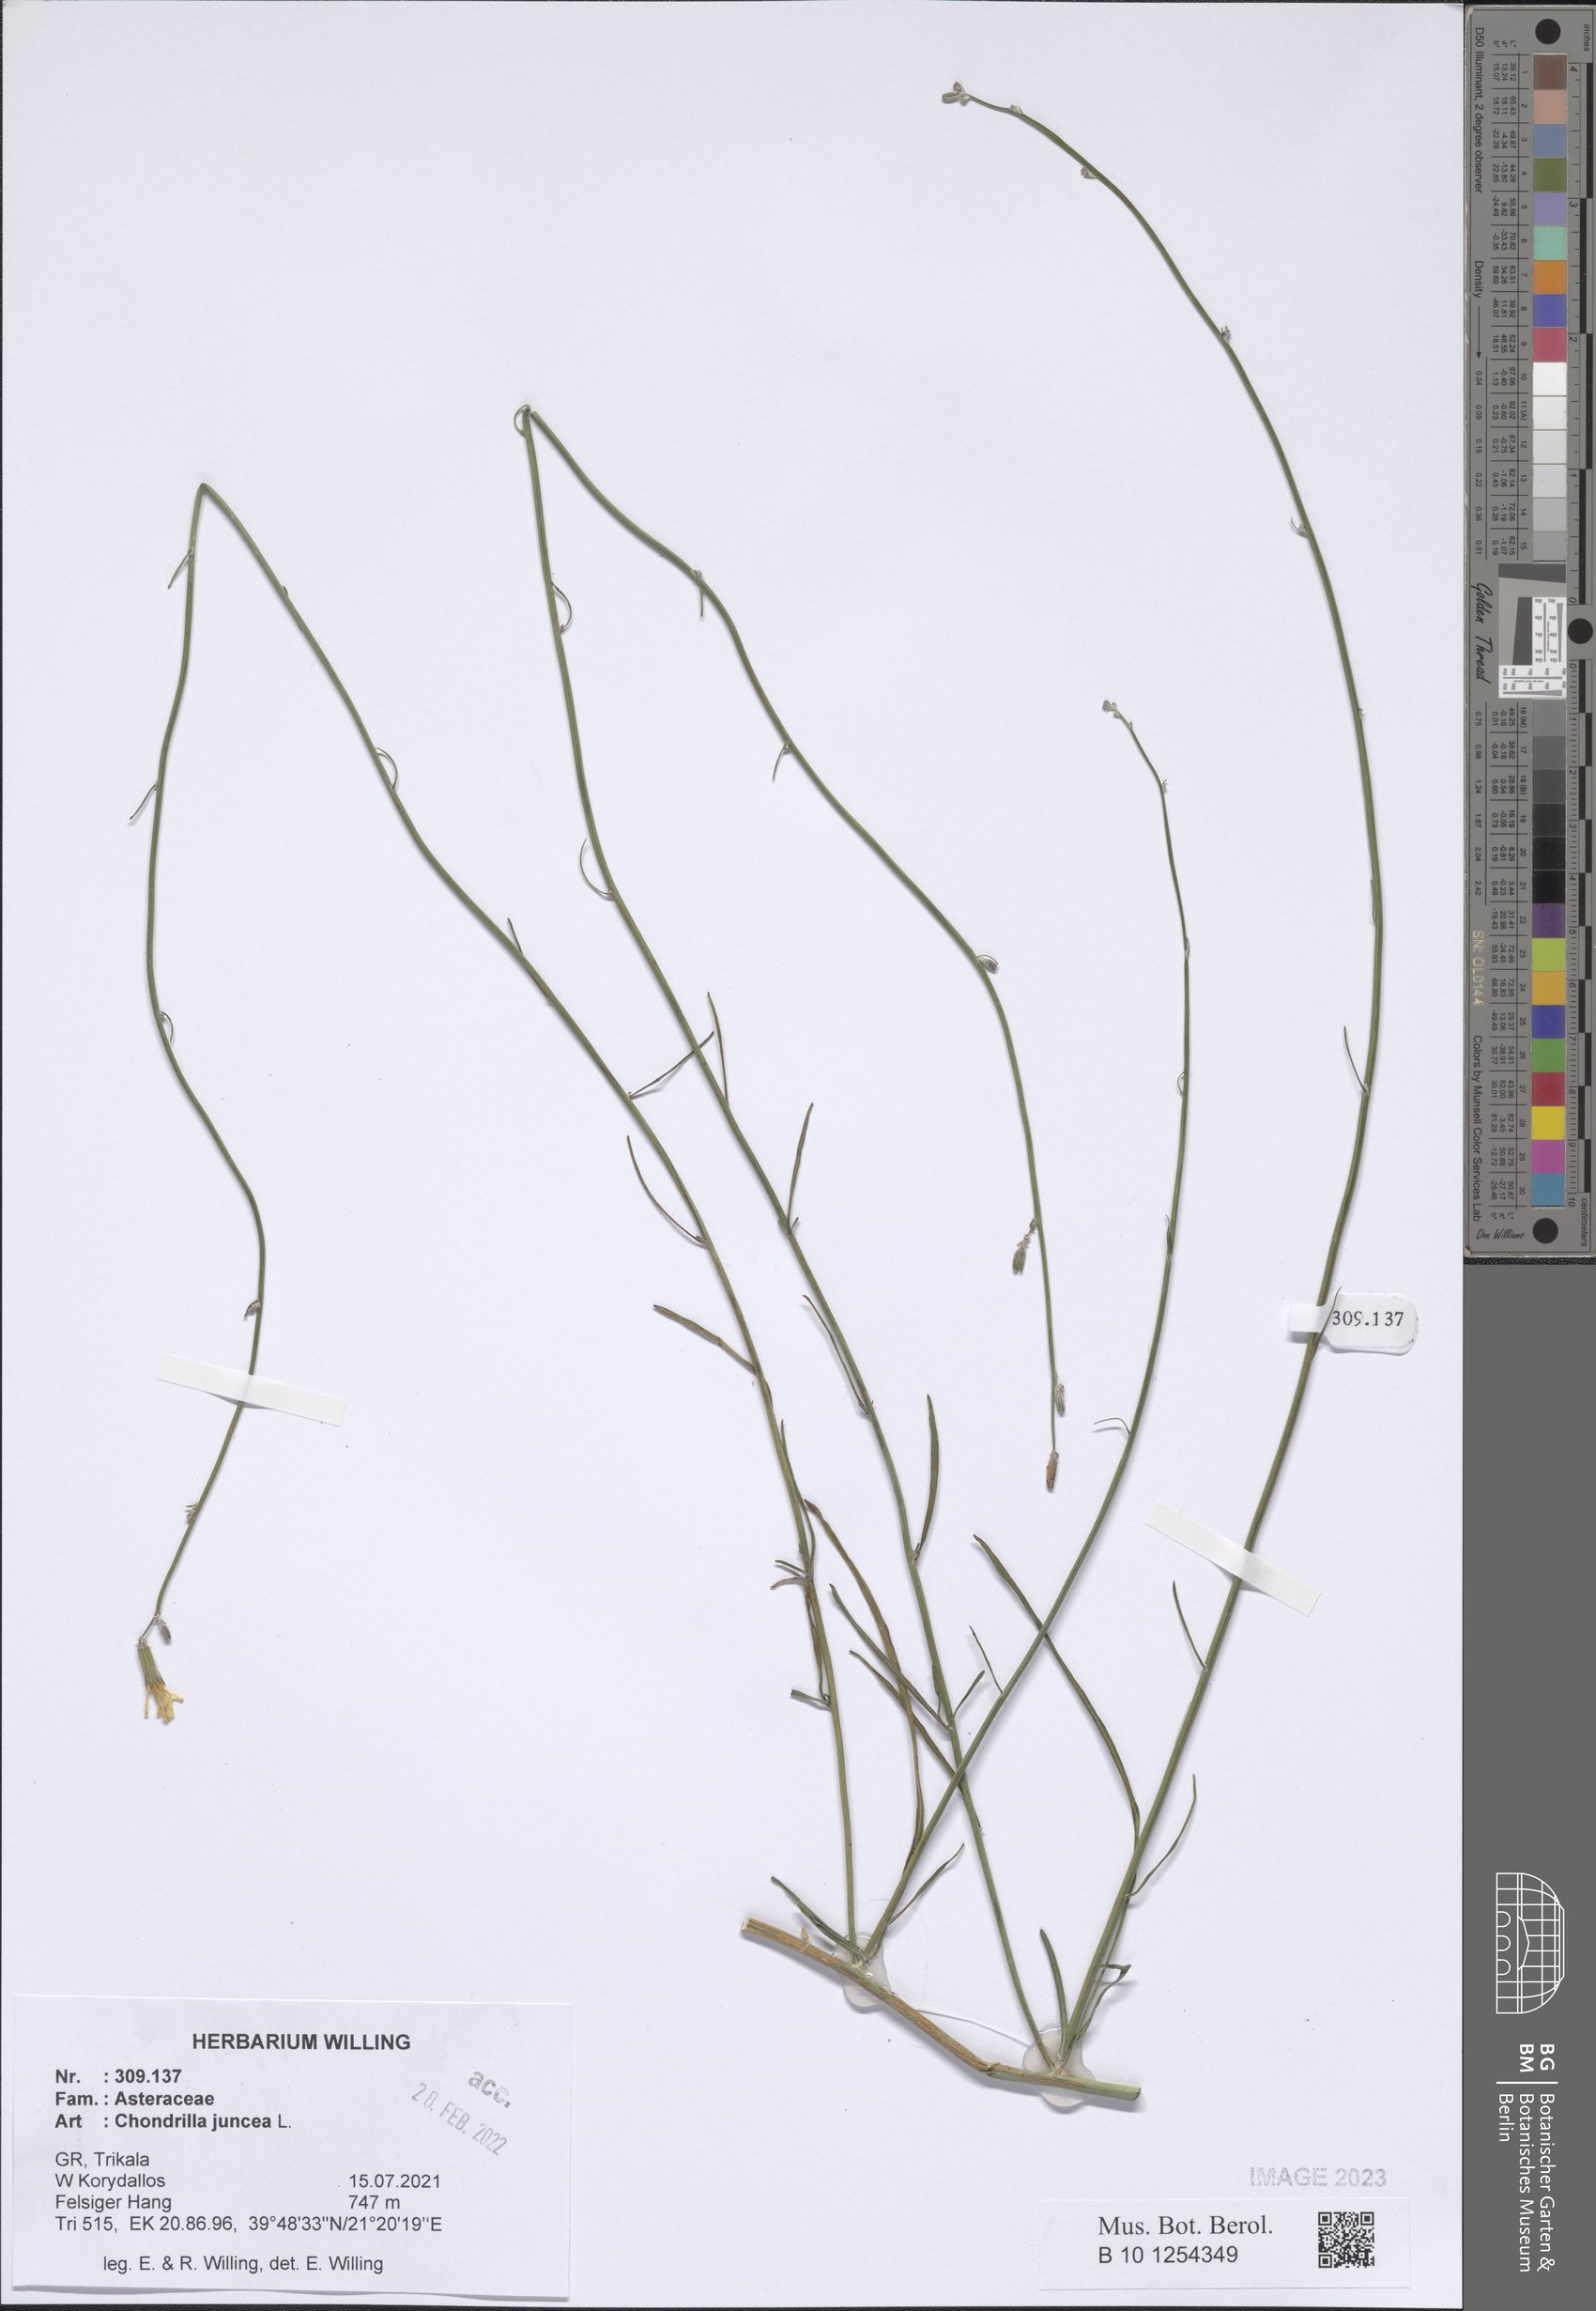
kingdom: Plantae
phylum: Tracheophyta
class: Magnoliopsida
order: Asterales
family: Asteraceae
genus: Chondrilla
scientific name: Chondrilla juncea
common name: Skeleton weed
